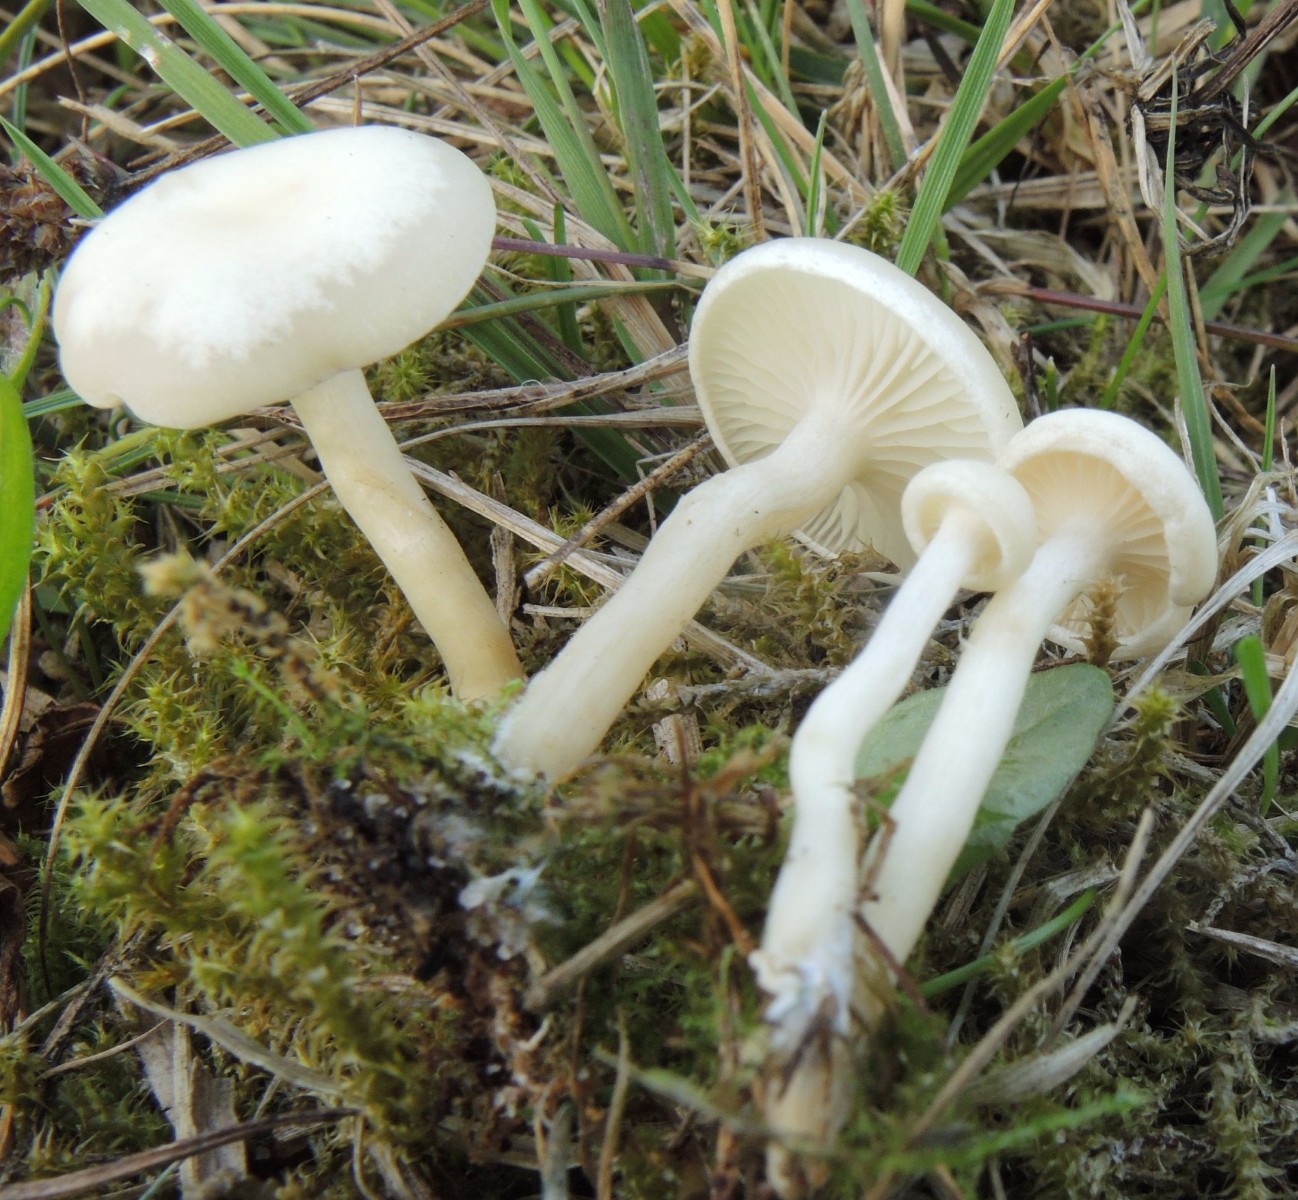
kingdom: Fungi
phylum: Basidiomycota
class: Agaricomycetes
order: Agaricales
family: Tricholomataceae
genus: Clitocybe
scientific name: Clitocybe agrestis
